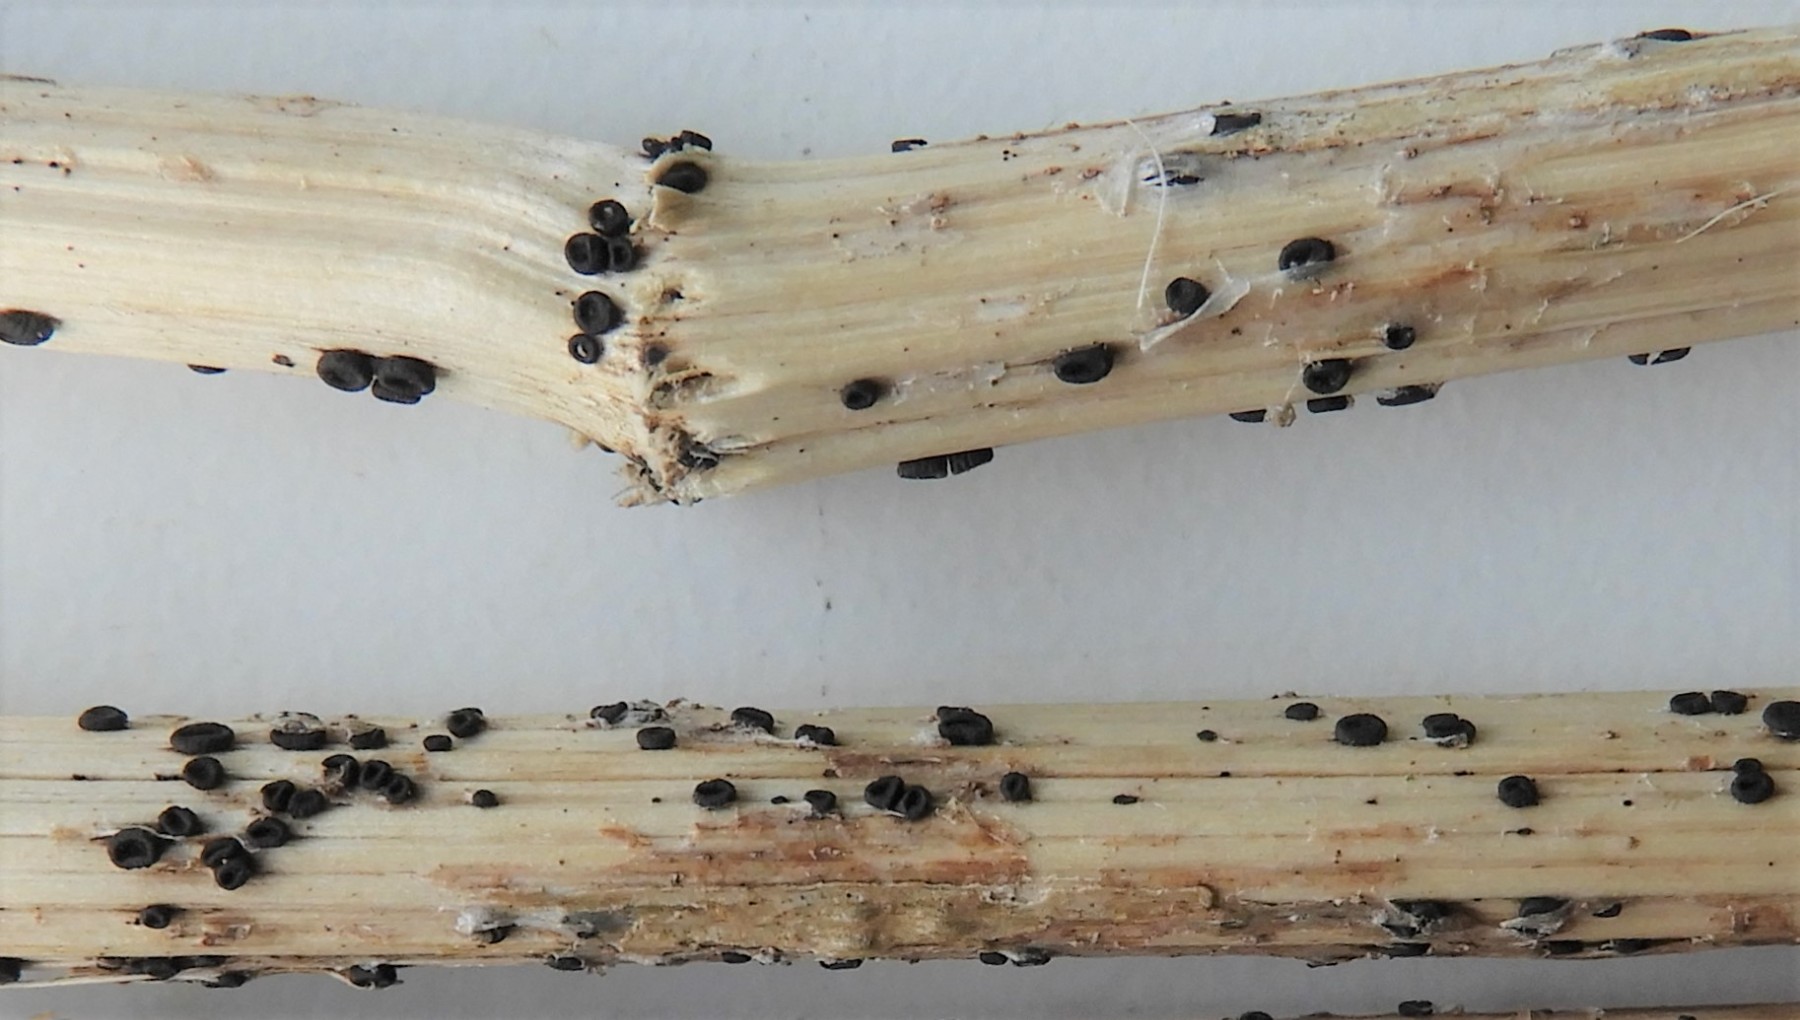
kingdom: Fungi
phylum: Ascomycota
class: Leotiomycetes
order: Helotiales
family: Heterosphaeriaceae
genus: Heterosphaeria
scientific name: Heterosphaeria
